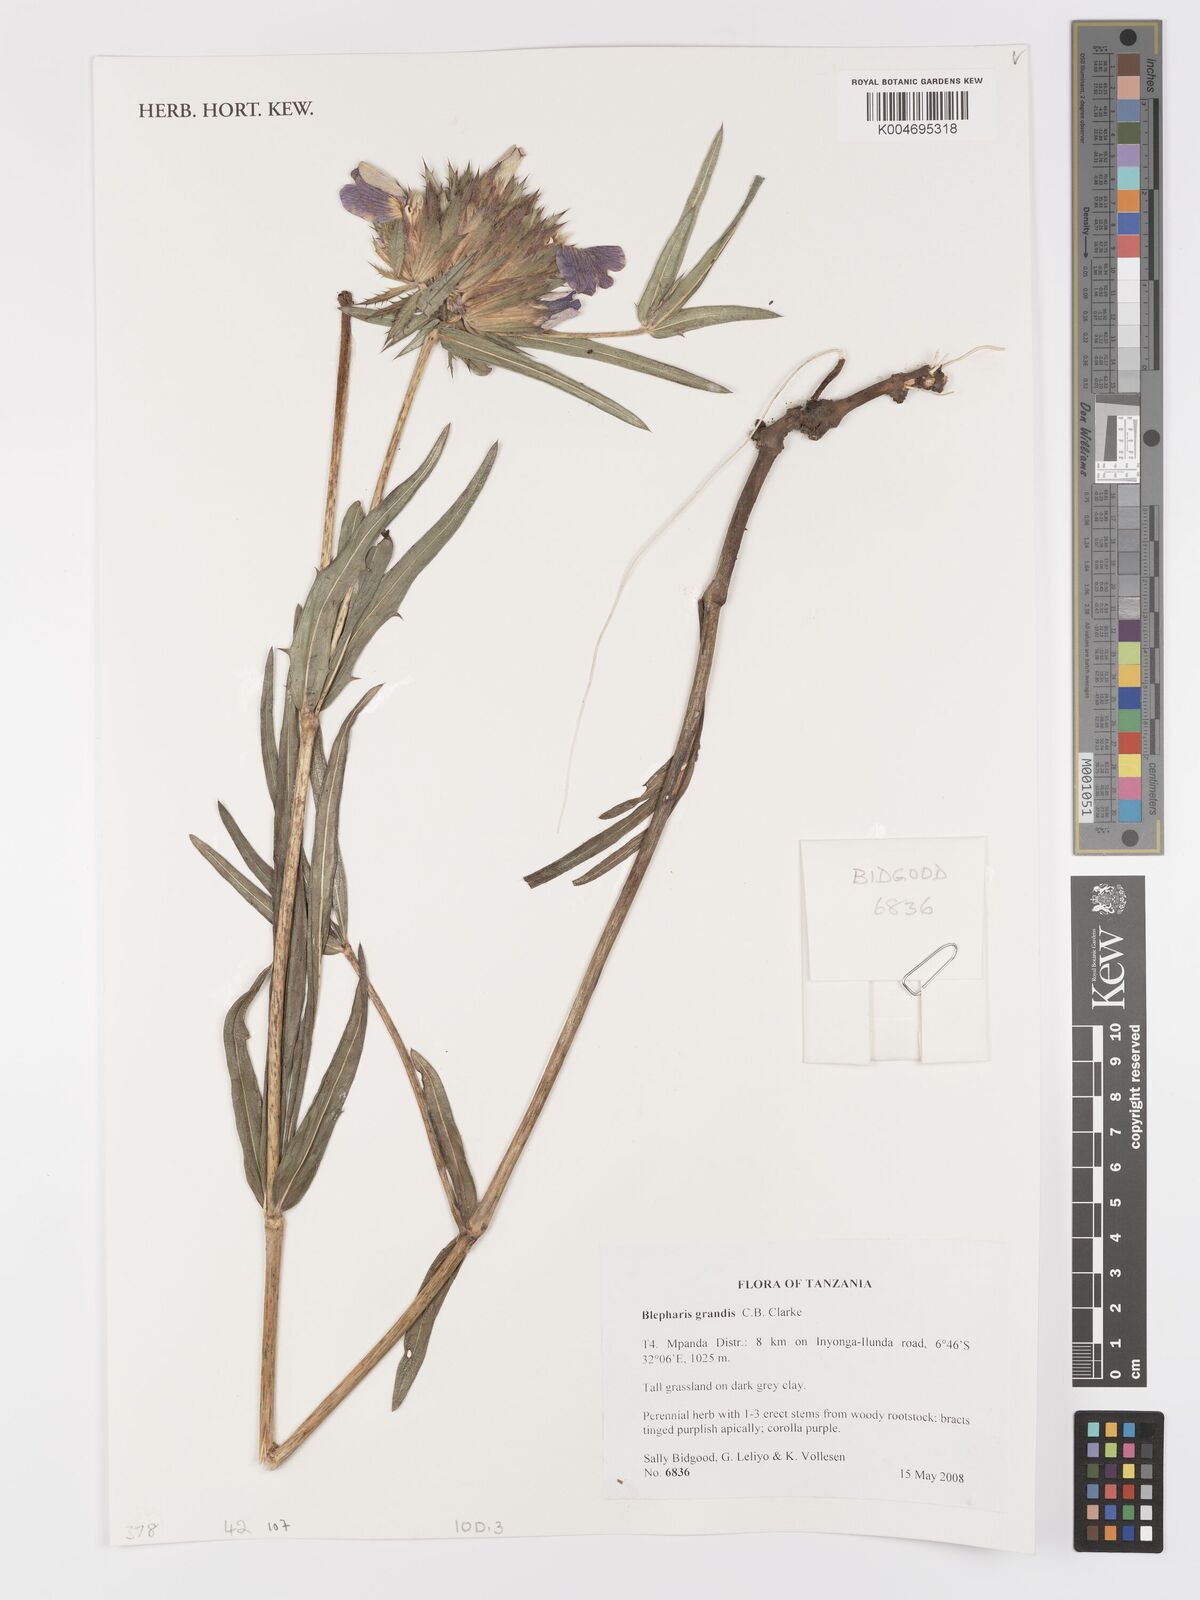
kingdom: Plantae
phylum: Tracheophyta
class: Magnoliopsida
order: Lamiales
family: Acanthaceae
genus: Blepharis
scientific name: Blepharis grandis
